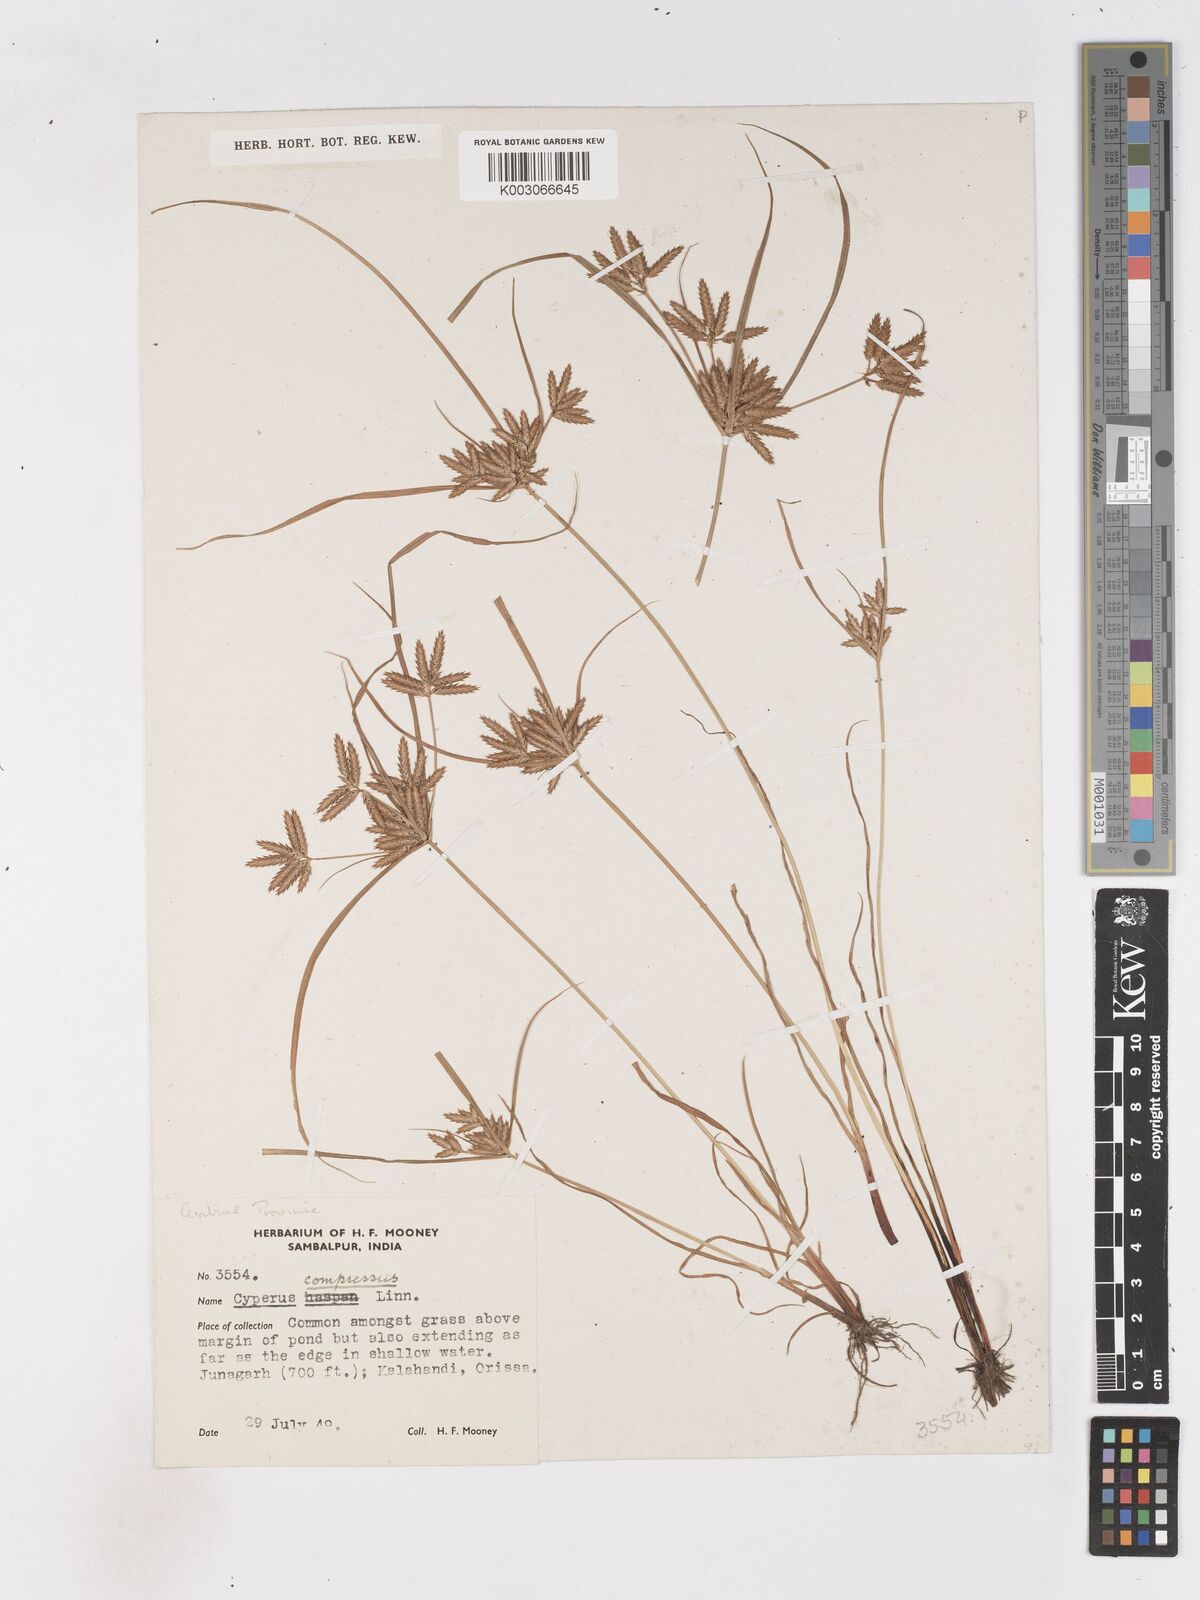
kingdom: Plantae
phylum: Tracheophyta
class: Liliopsida
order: Poales
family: Cyperaceae
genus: Cyperus
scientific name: Cyperus compressus
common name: Poorland flatsedge
